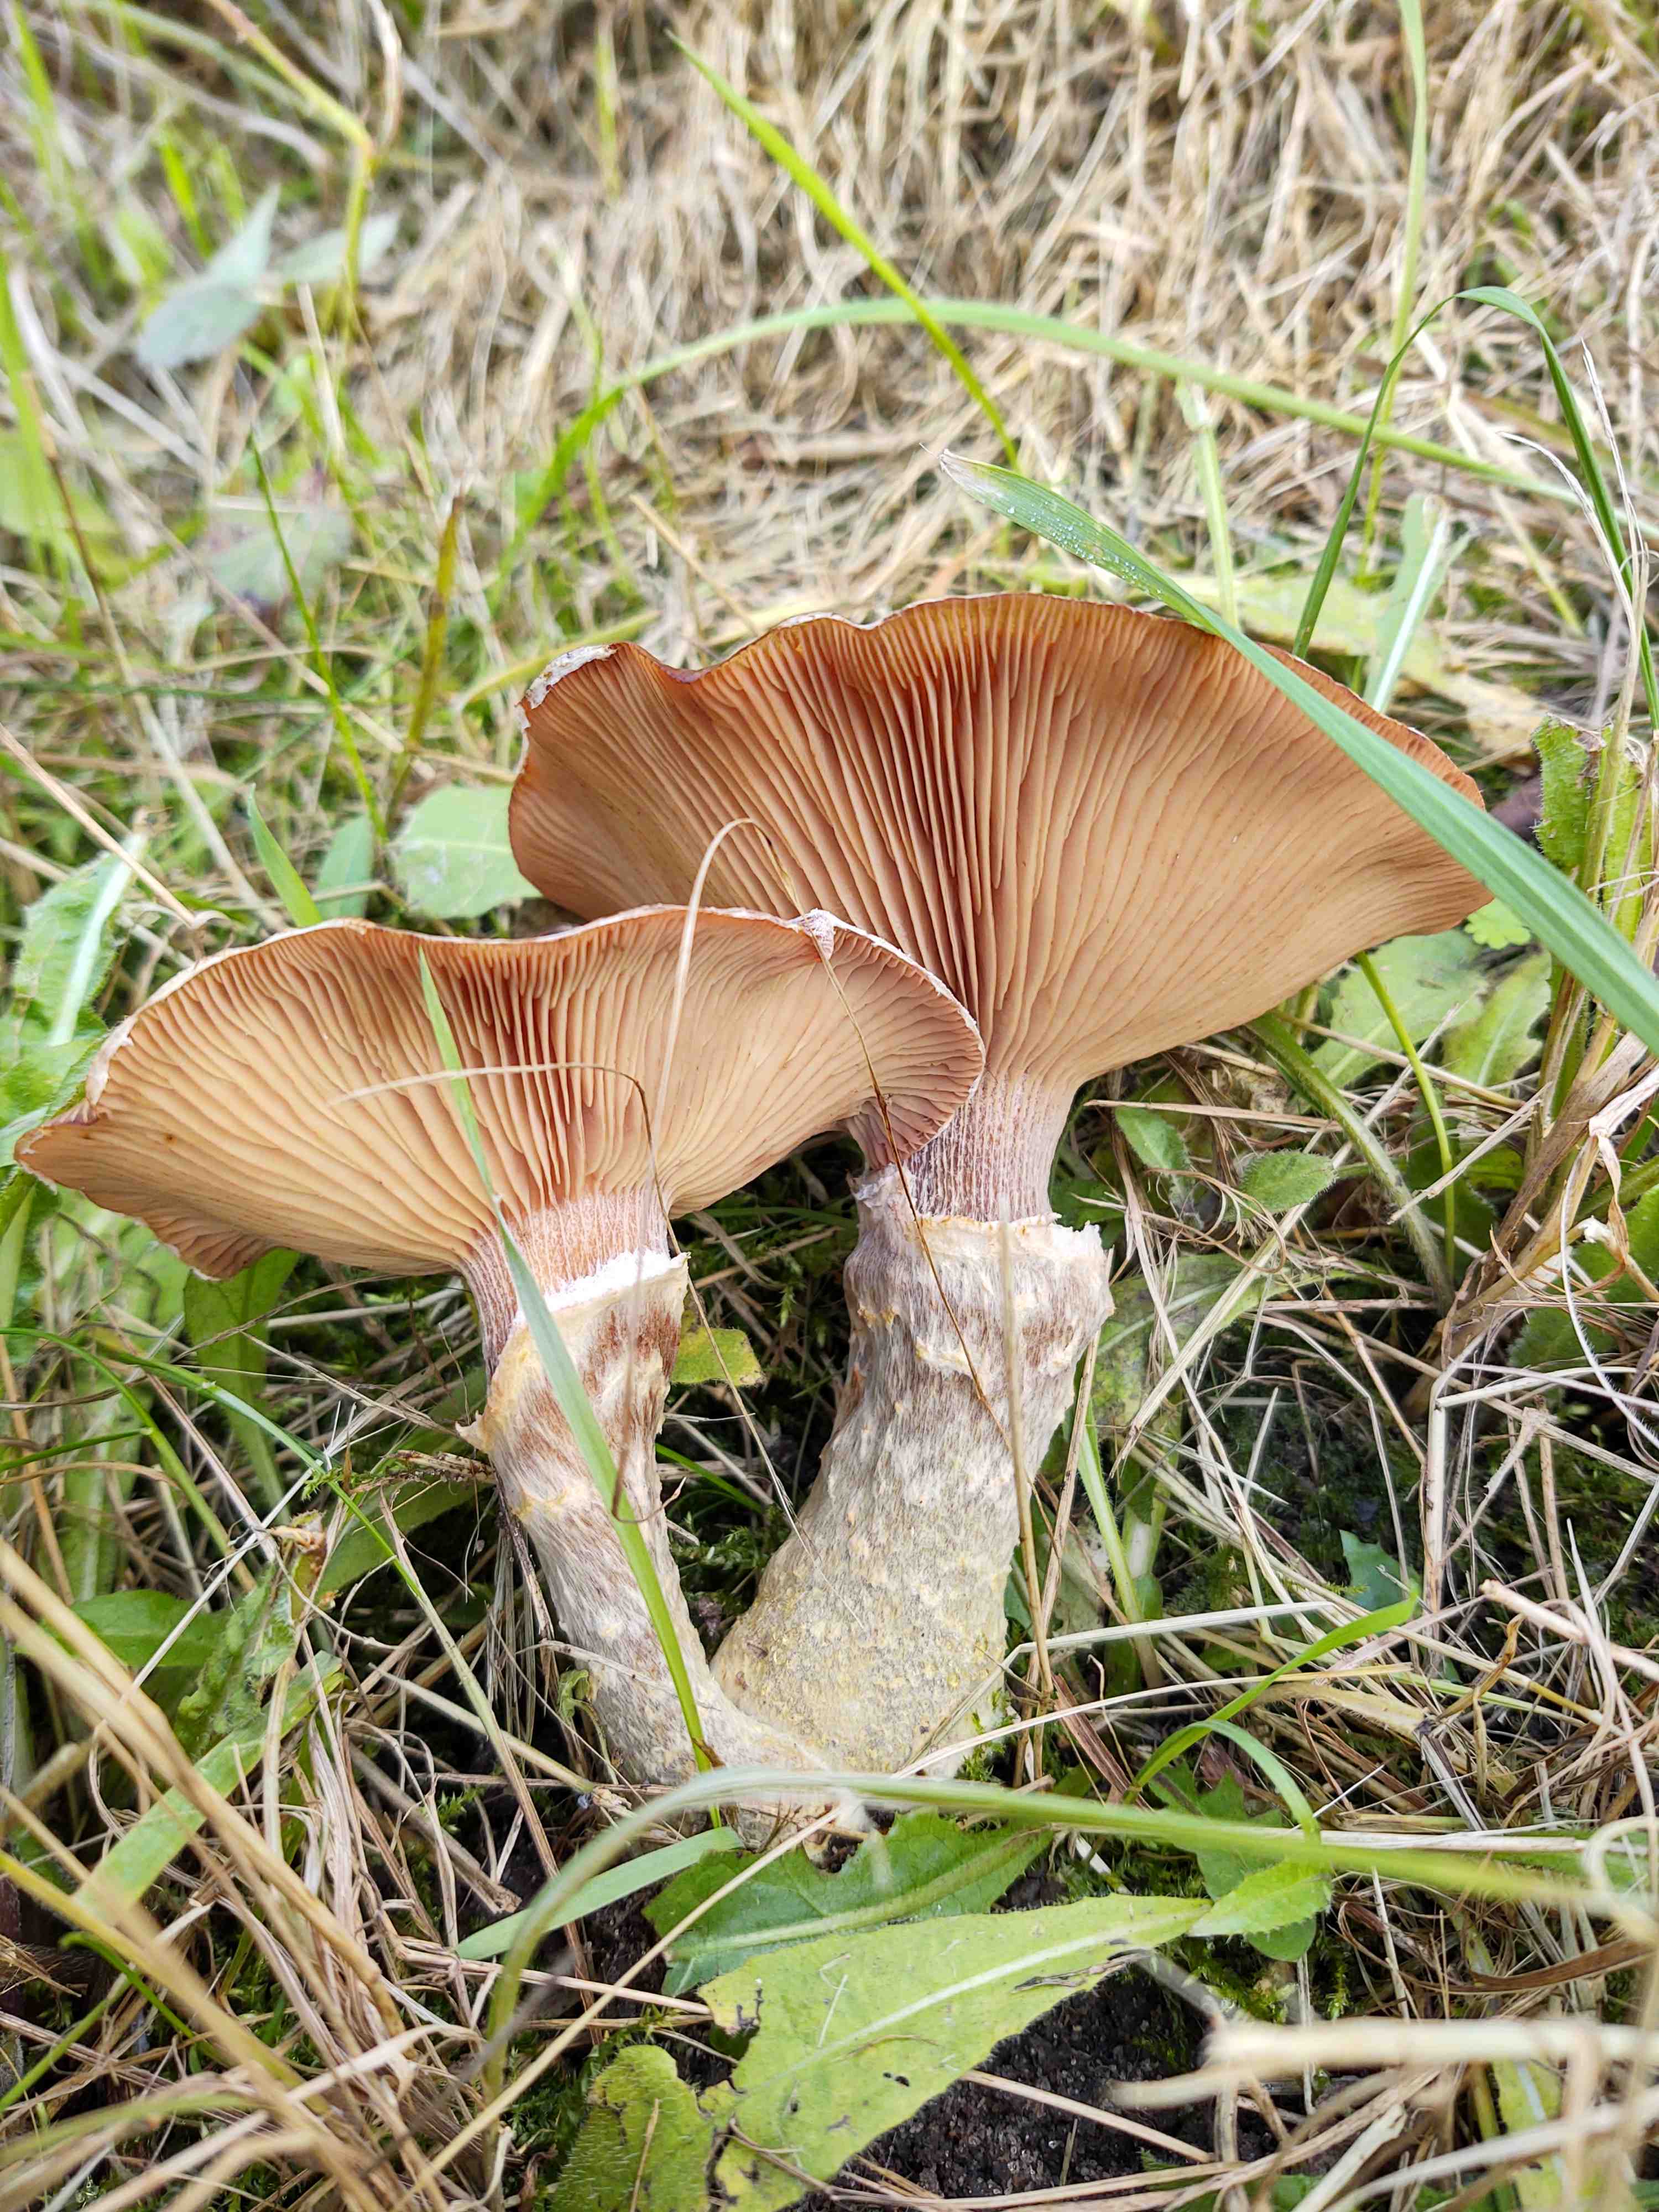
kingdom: Fungi
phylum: Basidiomycota
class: Agaricomycetes
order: Agaricales
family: Physalacriaceae
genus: Armillaria
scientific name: Armillaria lutea
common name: køllestokket honningsvamp
